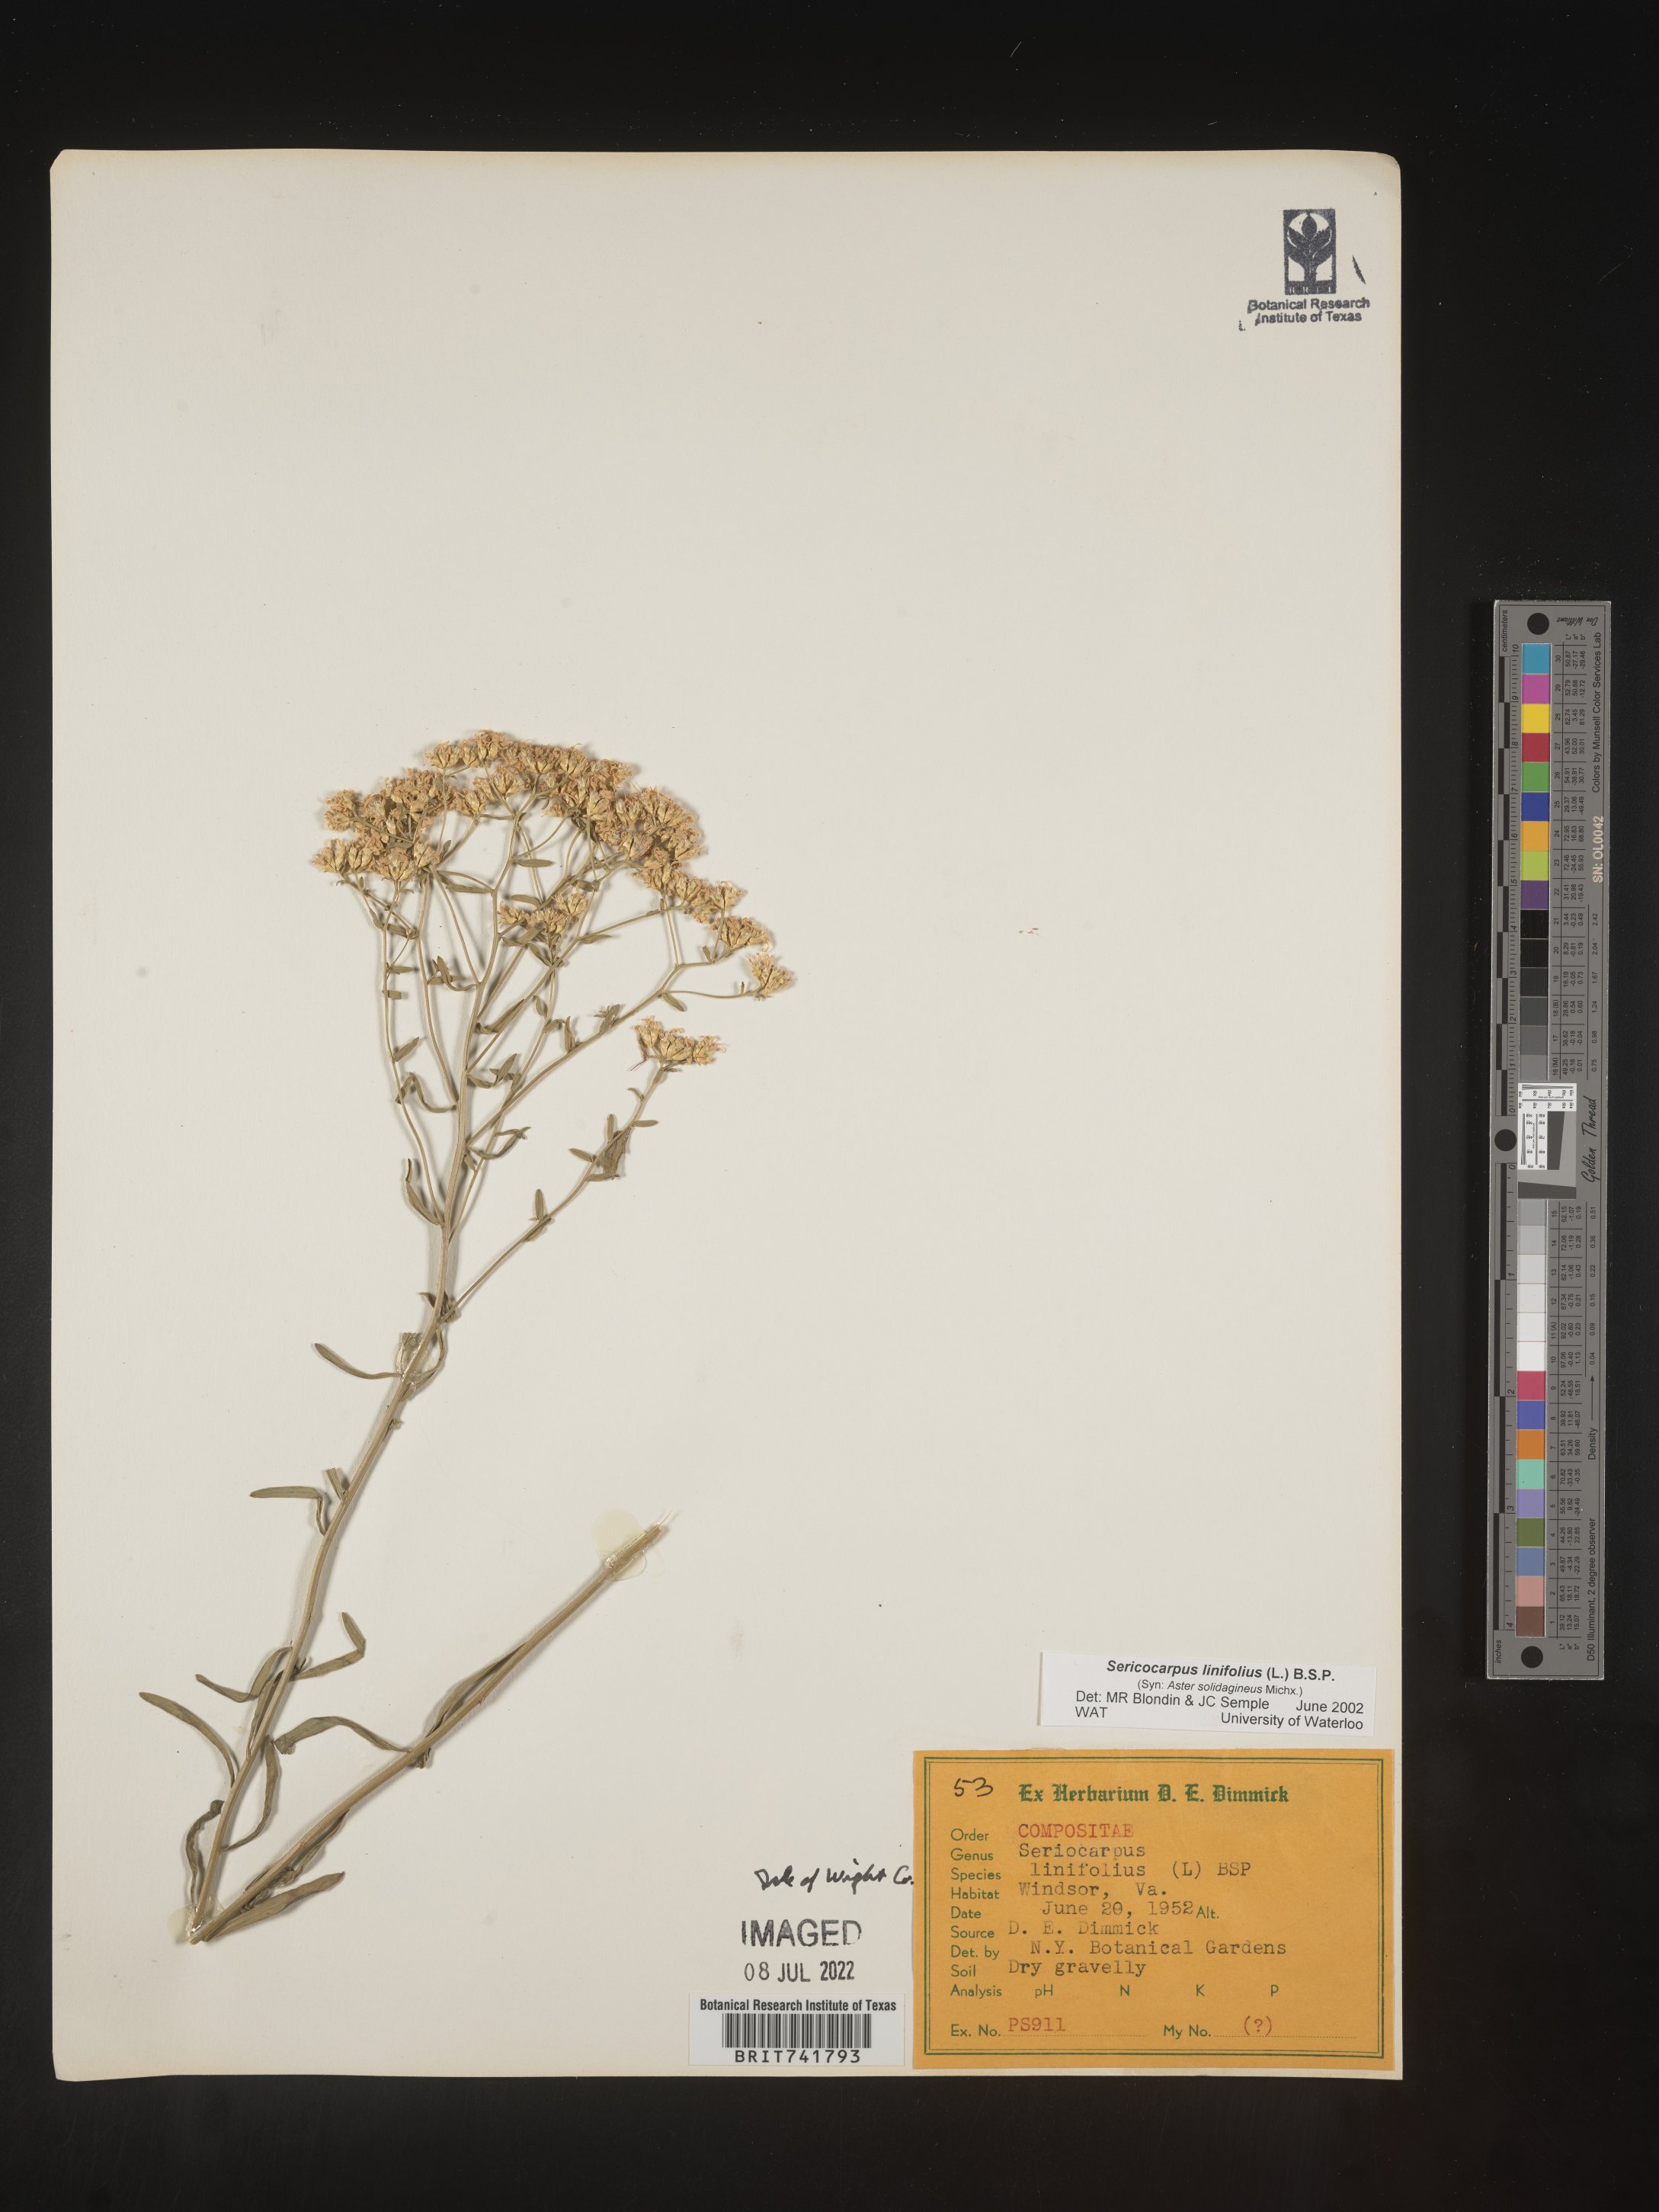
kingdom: Plantae
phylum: Tracheophyta
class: Magnoliopsida
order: Asterales
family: Asteraceae
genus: Sericocarpus
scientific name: Sericocarpus linifolius
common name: Narrow-leaf aster
